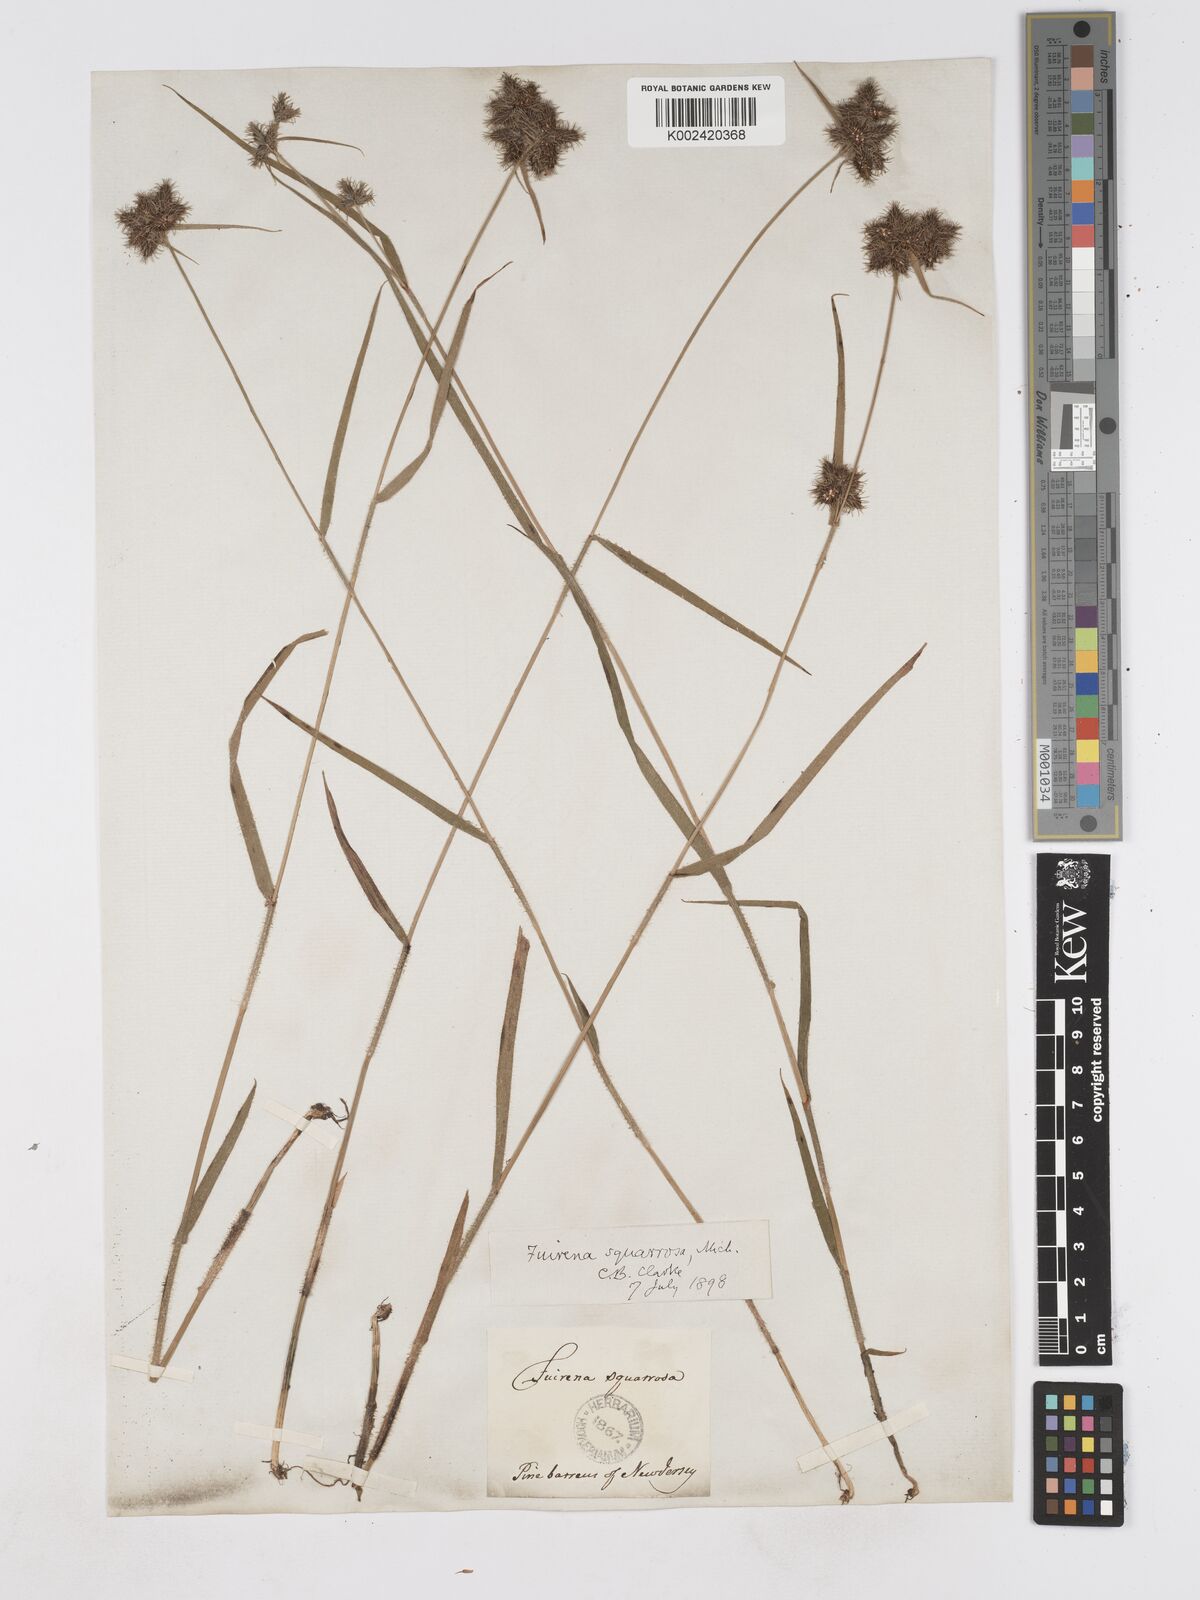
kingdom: Plantae
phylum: Tracheophyta
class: Liliopsida
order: Poales
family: Cyperaceae
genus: Fuirena
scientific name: Fuirena squarrosa
